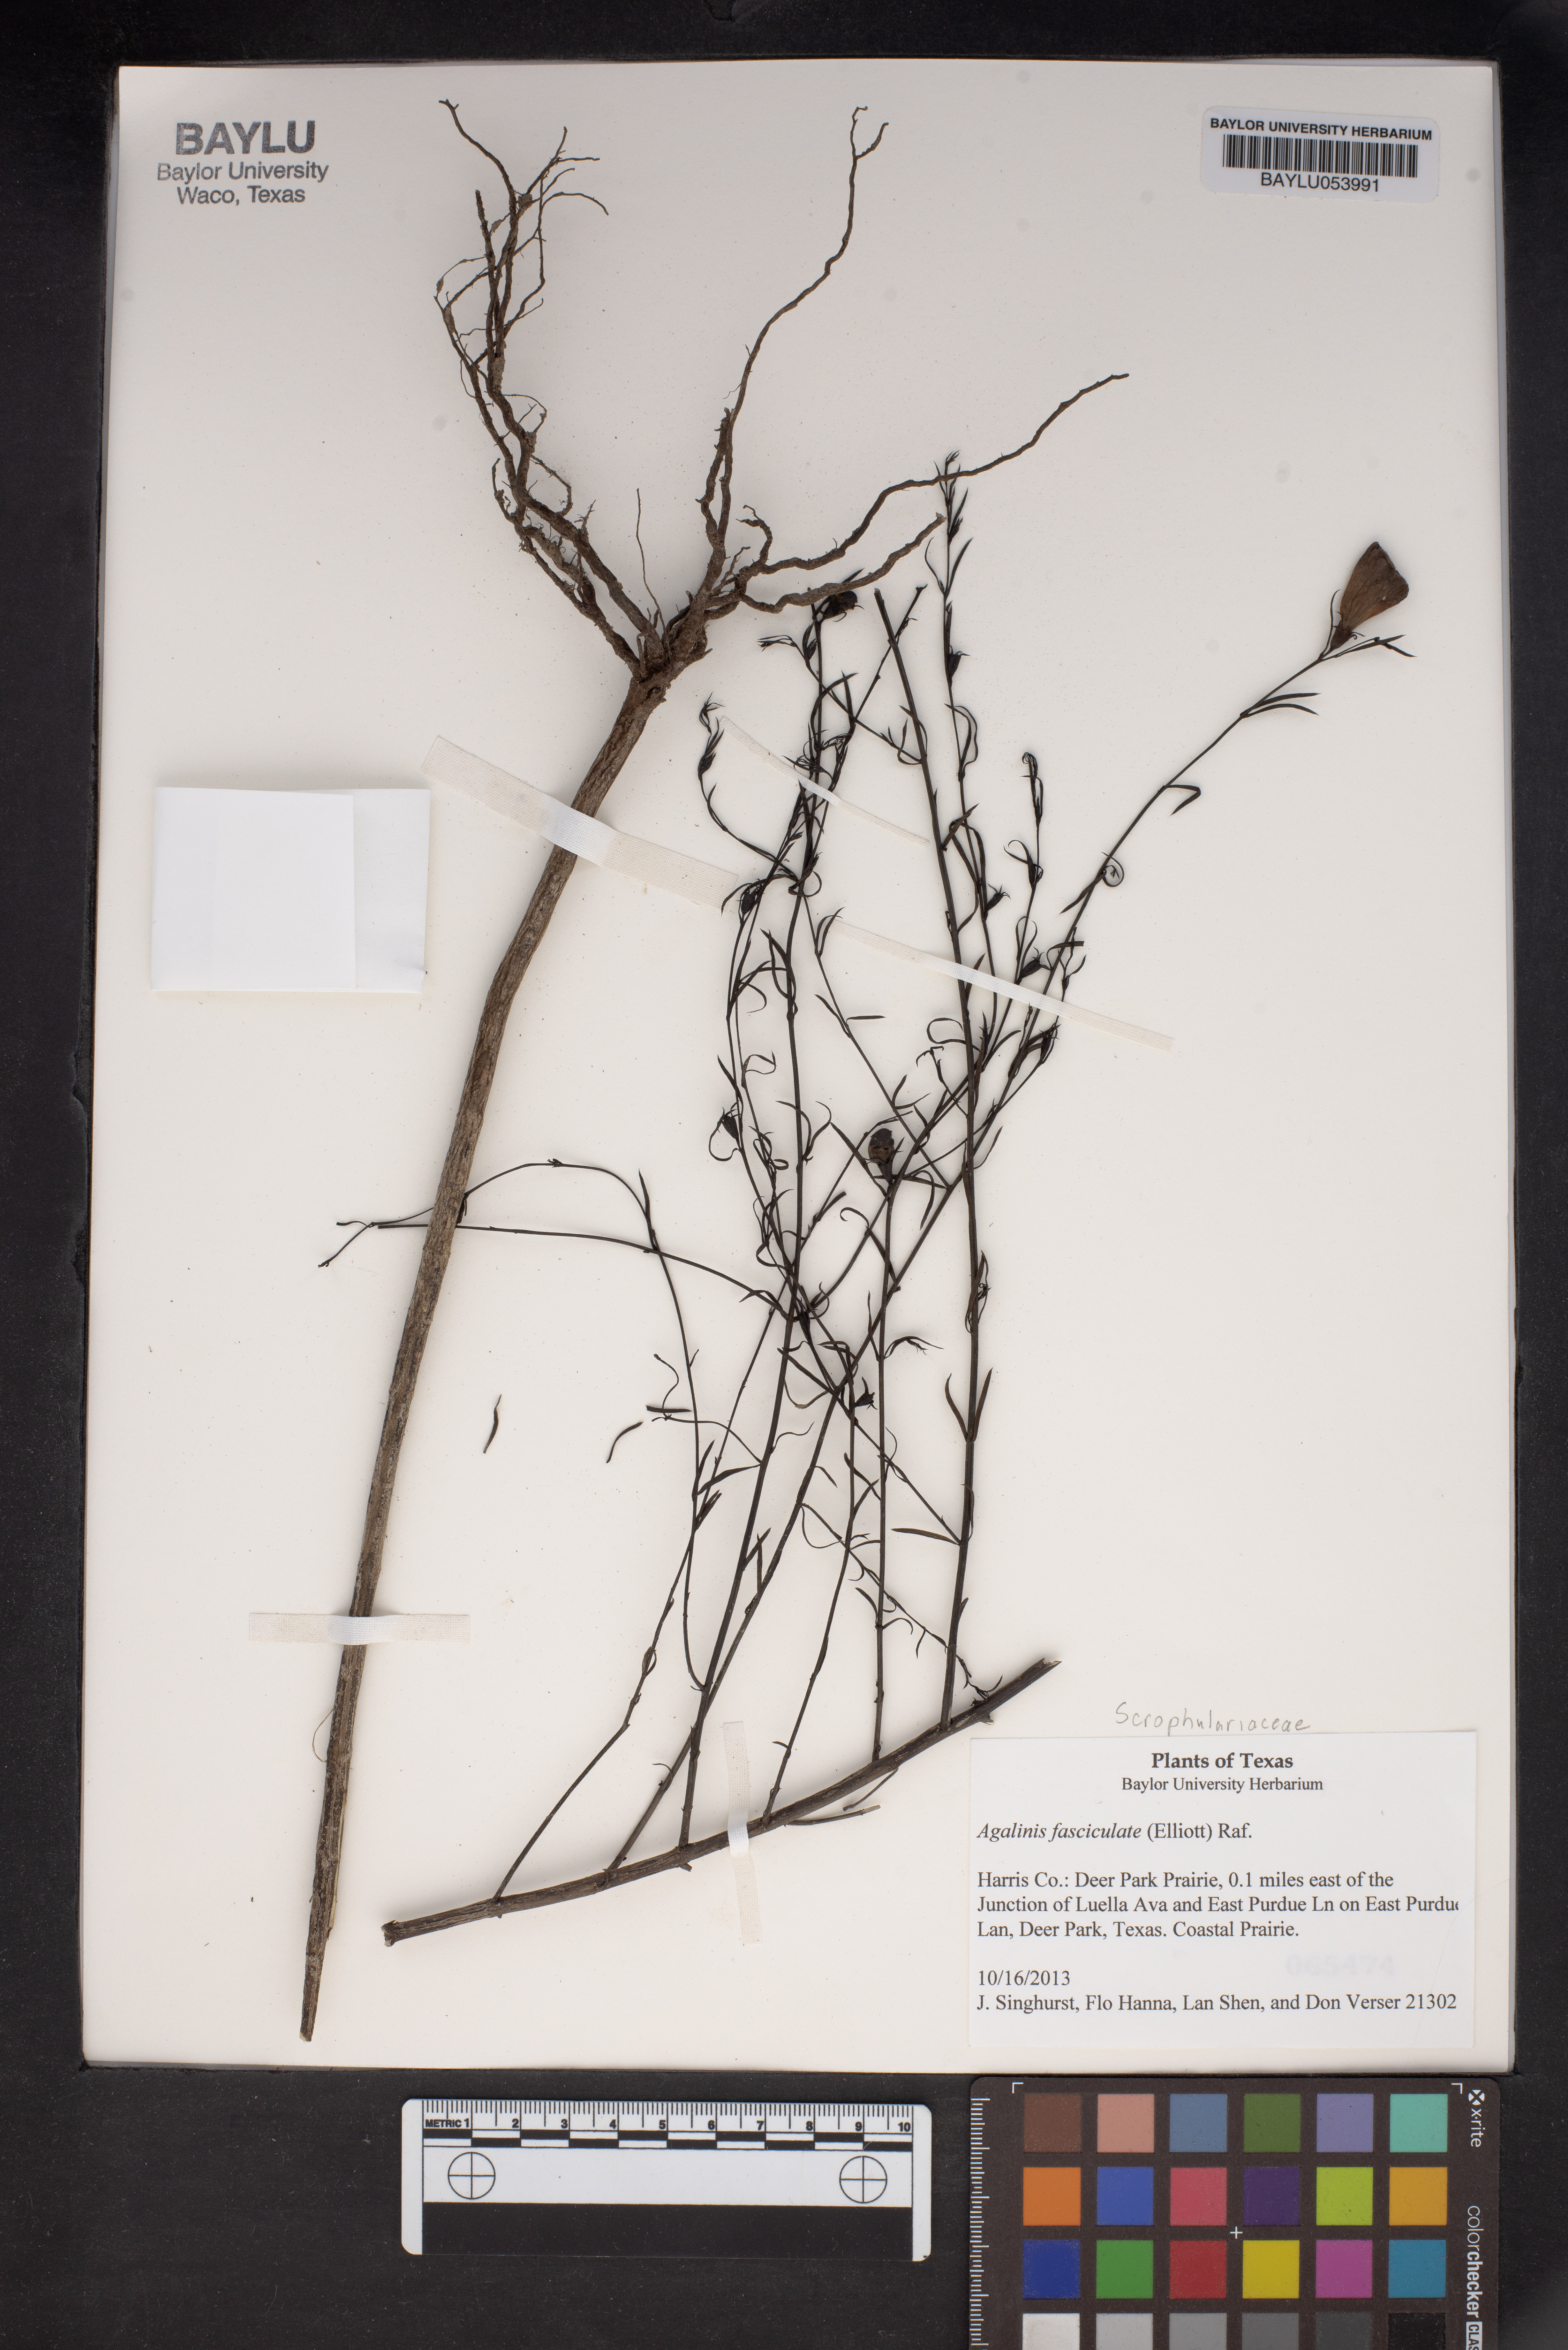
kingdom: Plantae
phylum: Tracheophyta
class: Magnoliopsida
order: Lamiales
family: Orobanchaceae
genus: Agalinis
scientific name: Agalinis fasciculata
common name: Beach false foxglove
